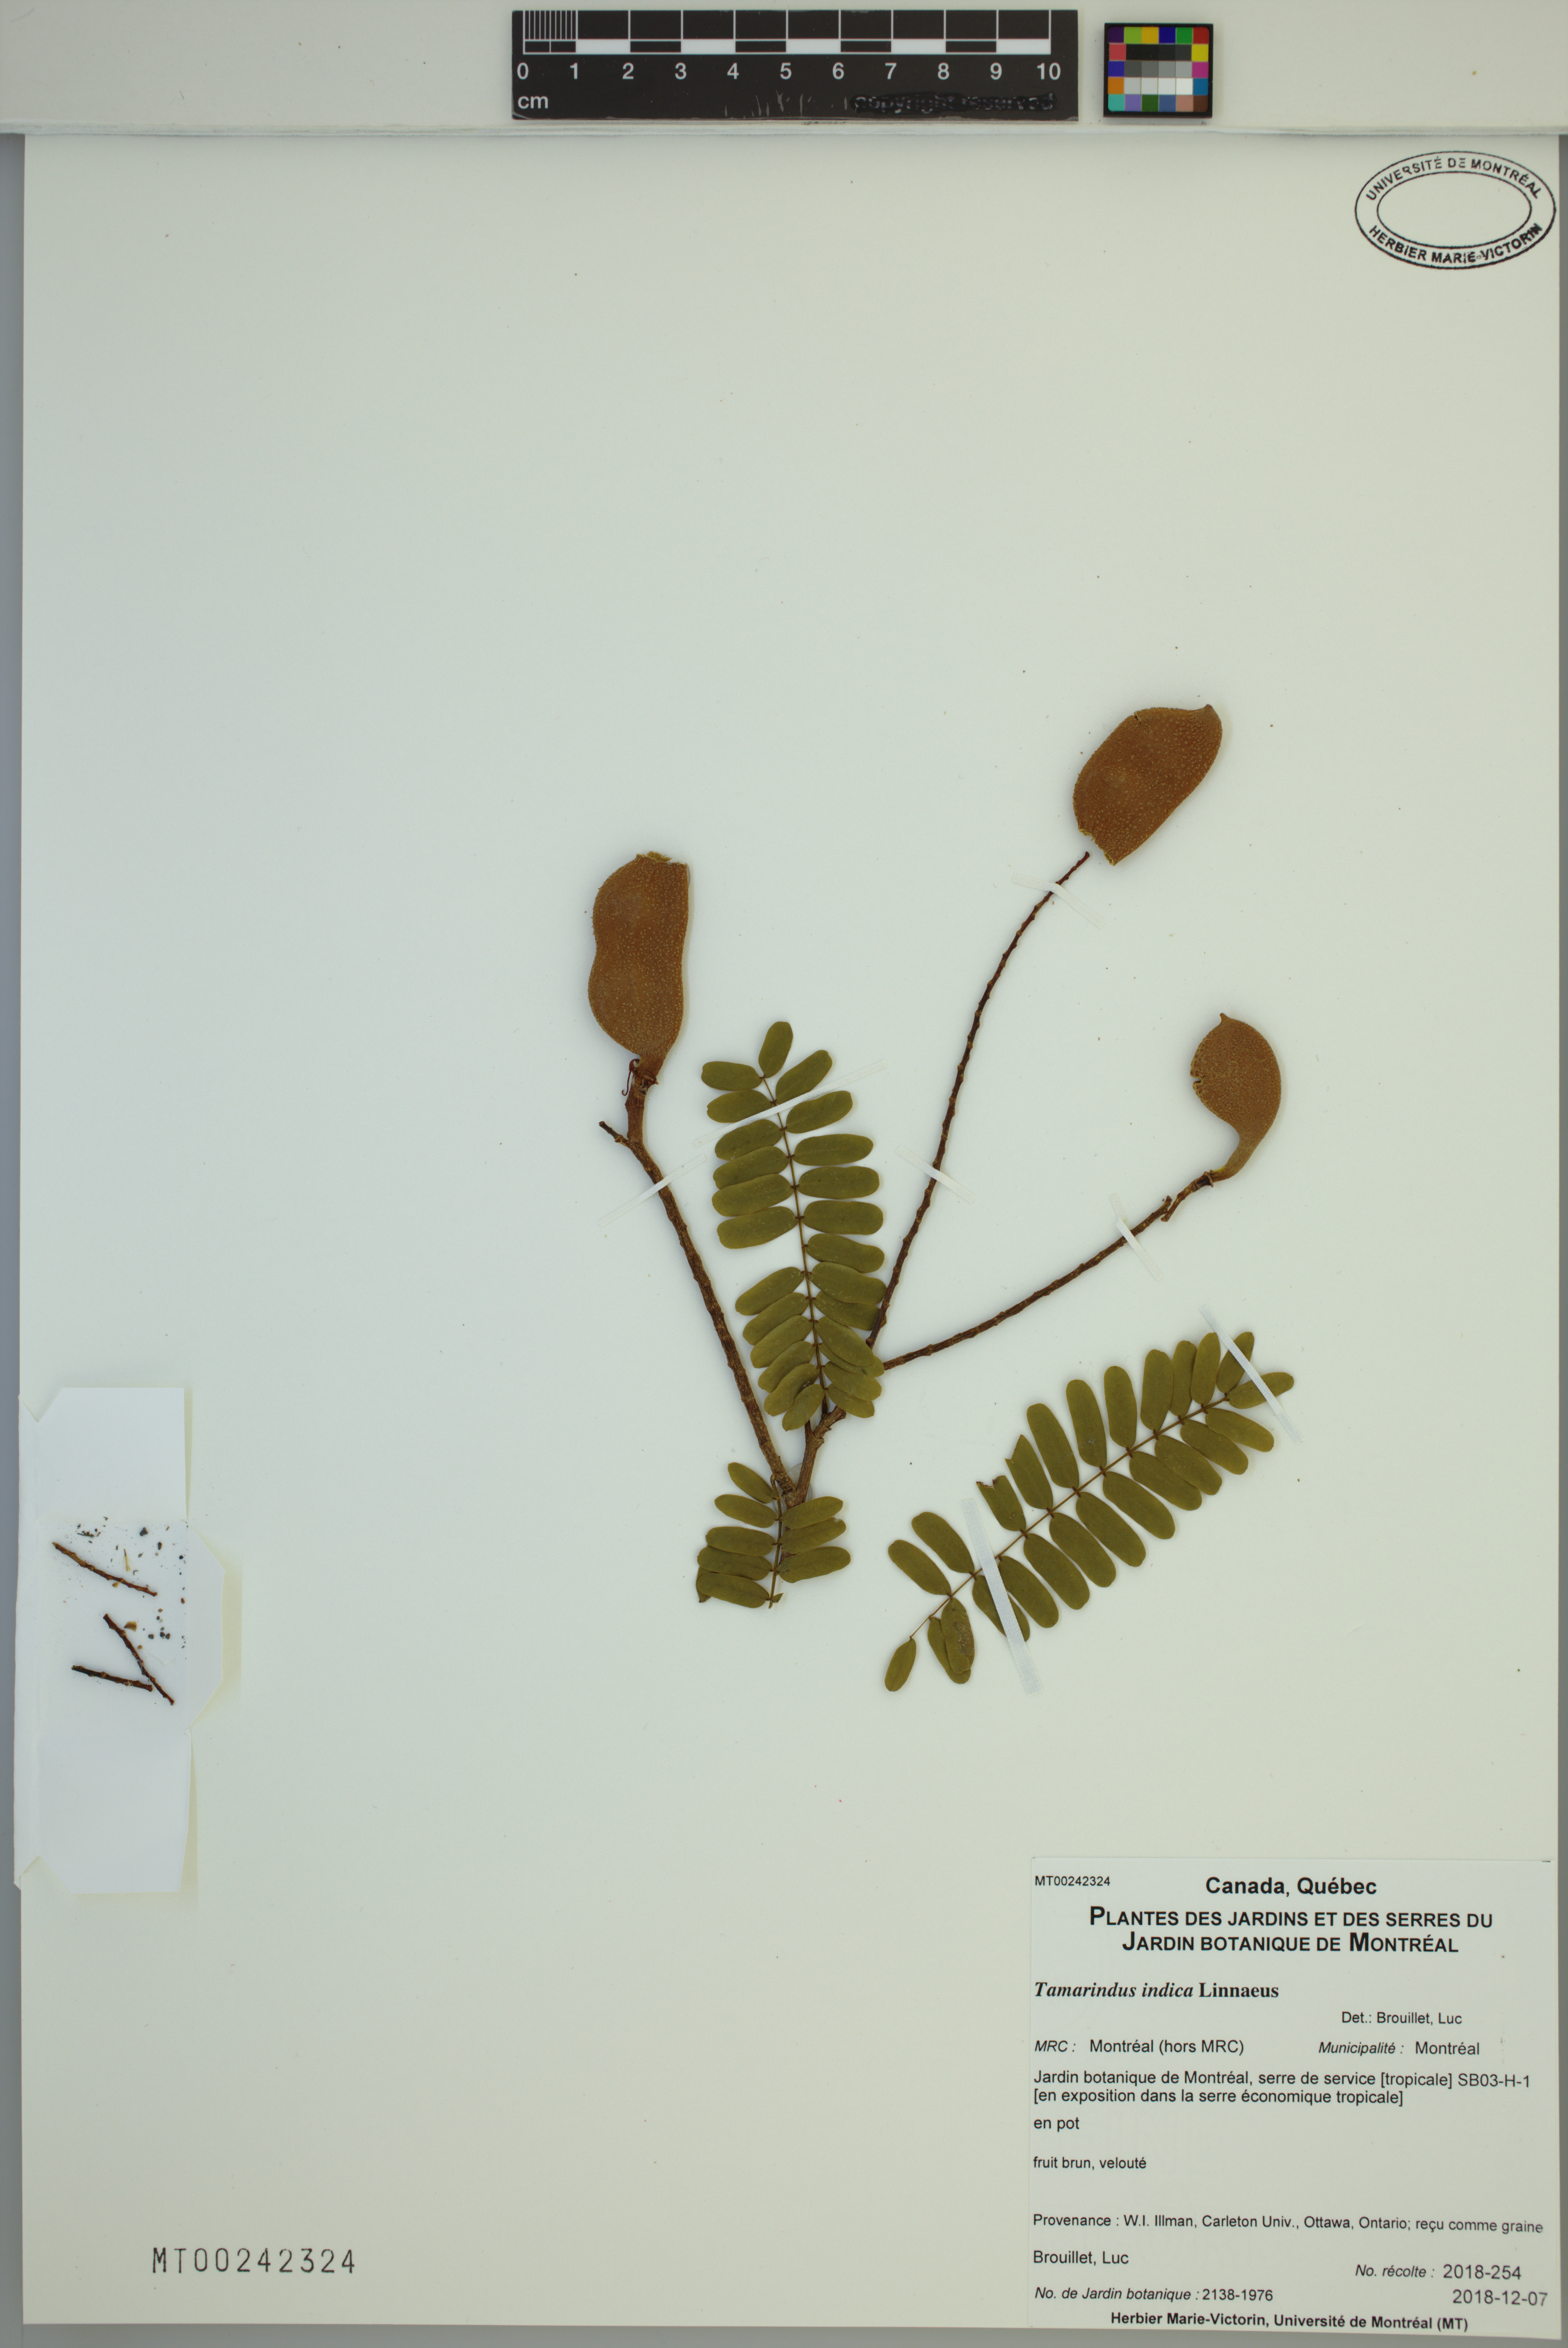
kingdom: Plantae
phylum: Tracheophyta
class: Magnoliopsida
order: Fabales
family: Fabaceae
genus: Tamarindus
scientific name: Tamarindus indica
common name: Tamarind
